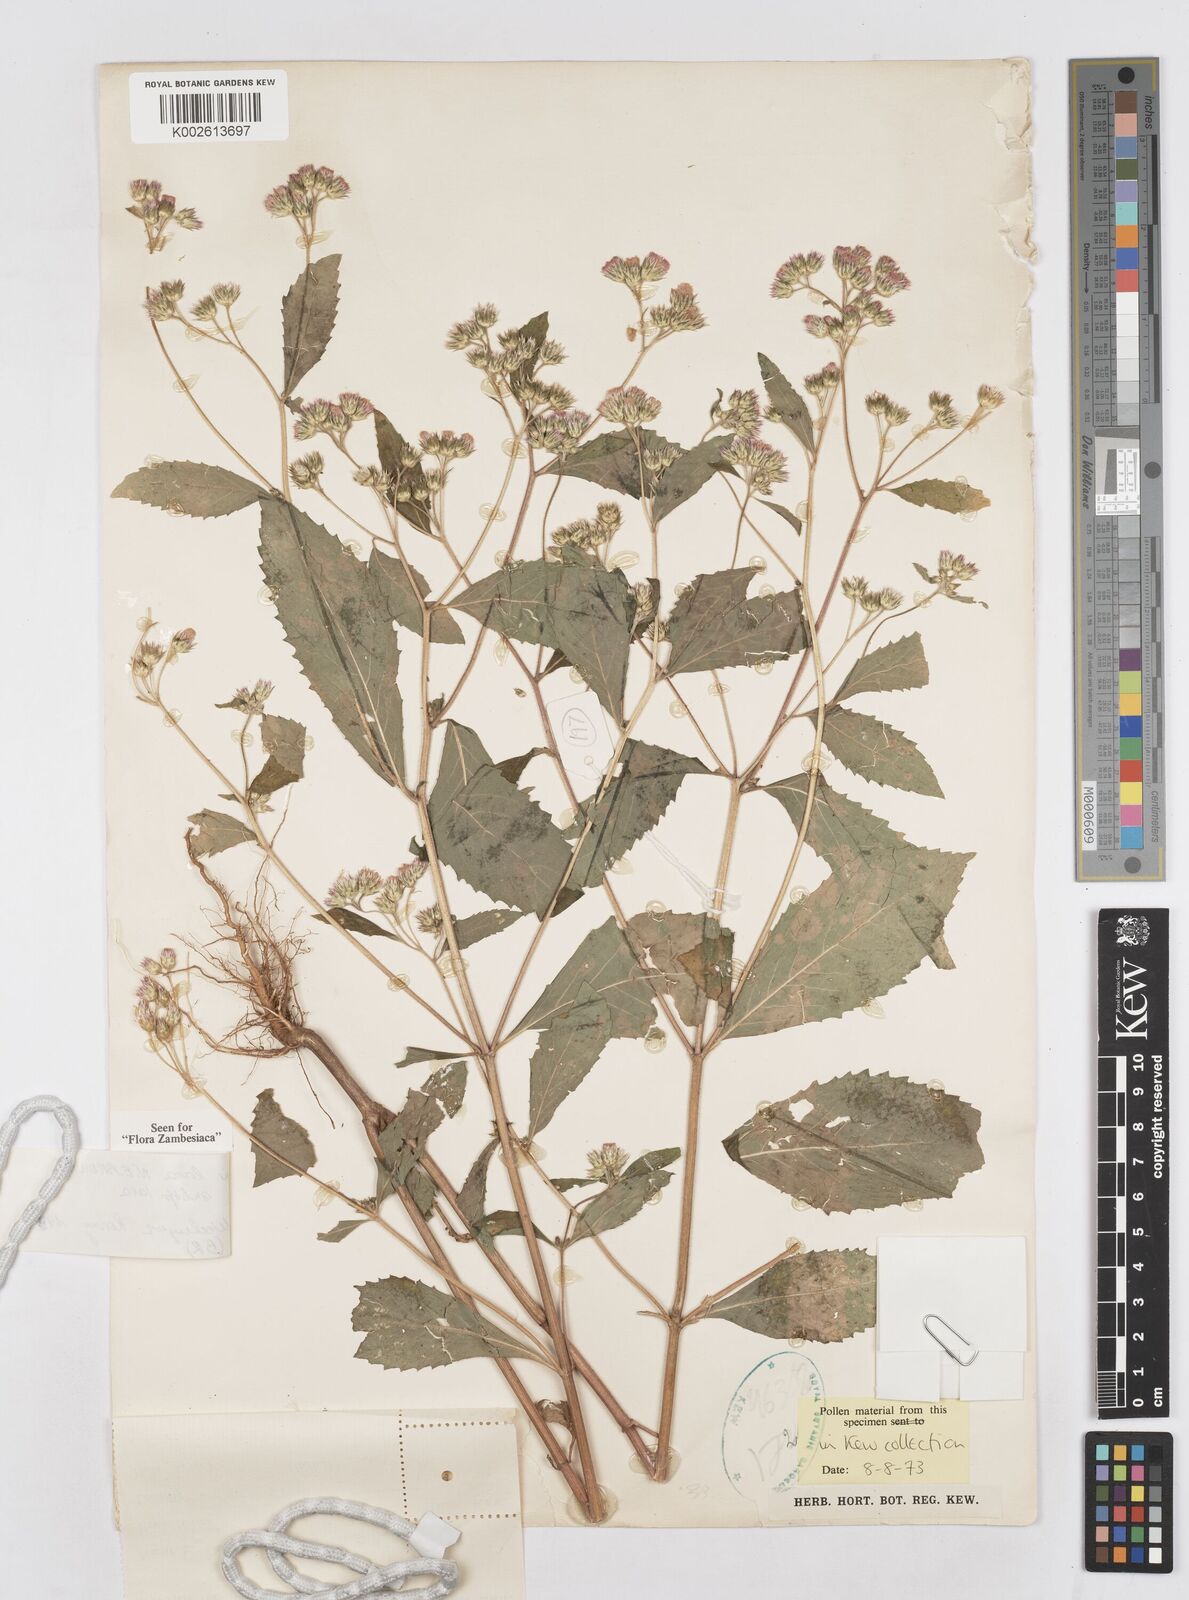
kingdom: Plantae
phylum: Tracheophyta
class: Magnoliopsida
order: Asterales
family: Asteraceae
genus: Bothriocline
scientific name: Bothriocline laxa
